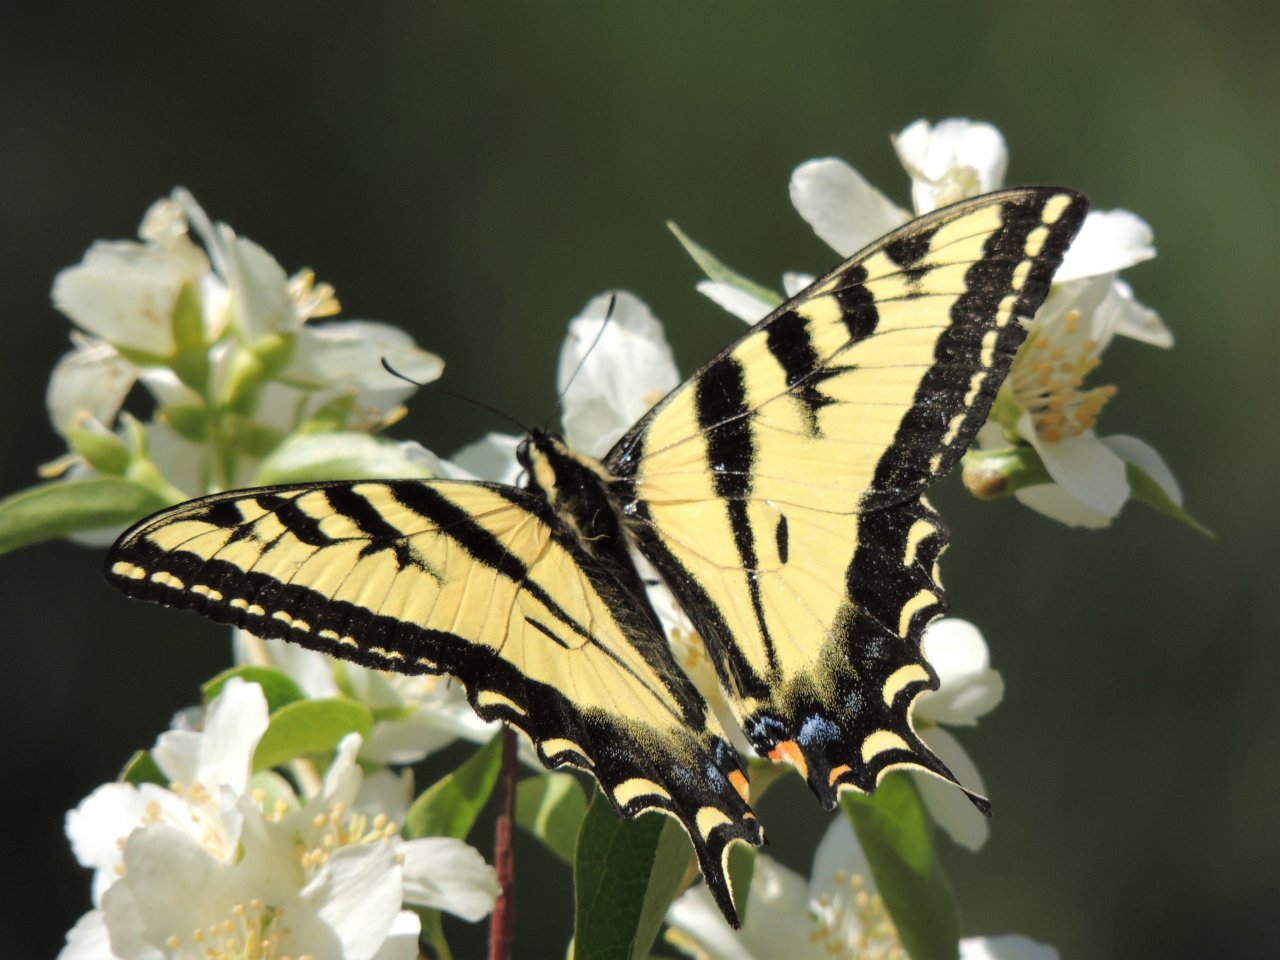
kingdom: Animalia
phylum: Arthropoda
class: Insecta
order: Lepidoptera
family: Papilionidae
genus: Pterourus
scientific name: Pterourus rutulus
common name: Western Tiger Swallowtail
